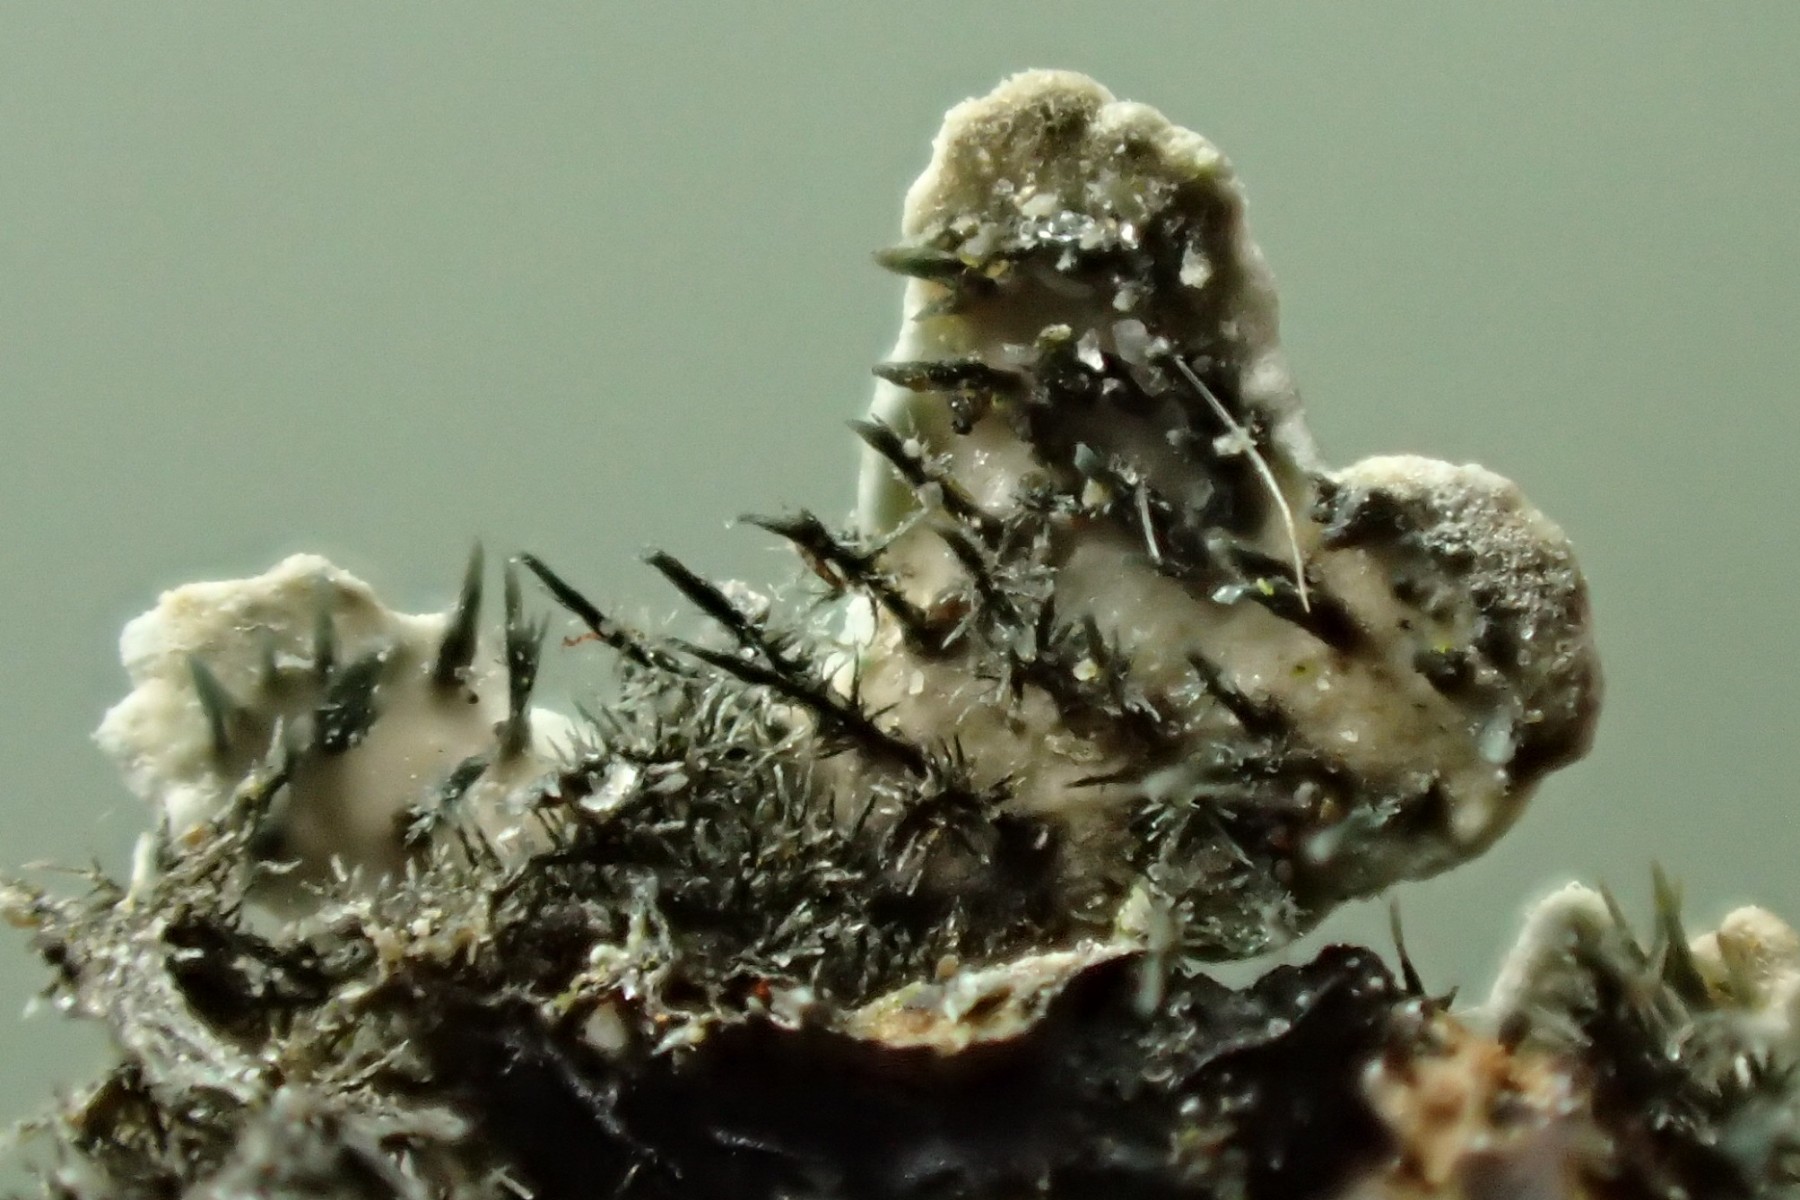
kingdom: Fungi
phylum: Ascomycota
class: Lecanoromycetes
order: Caliciales
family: Physciaceae
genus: Physconia
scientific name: Physconia distorta
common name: pudret dugrosetlav
